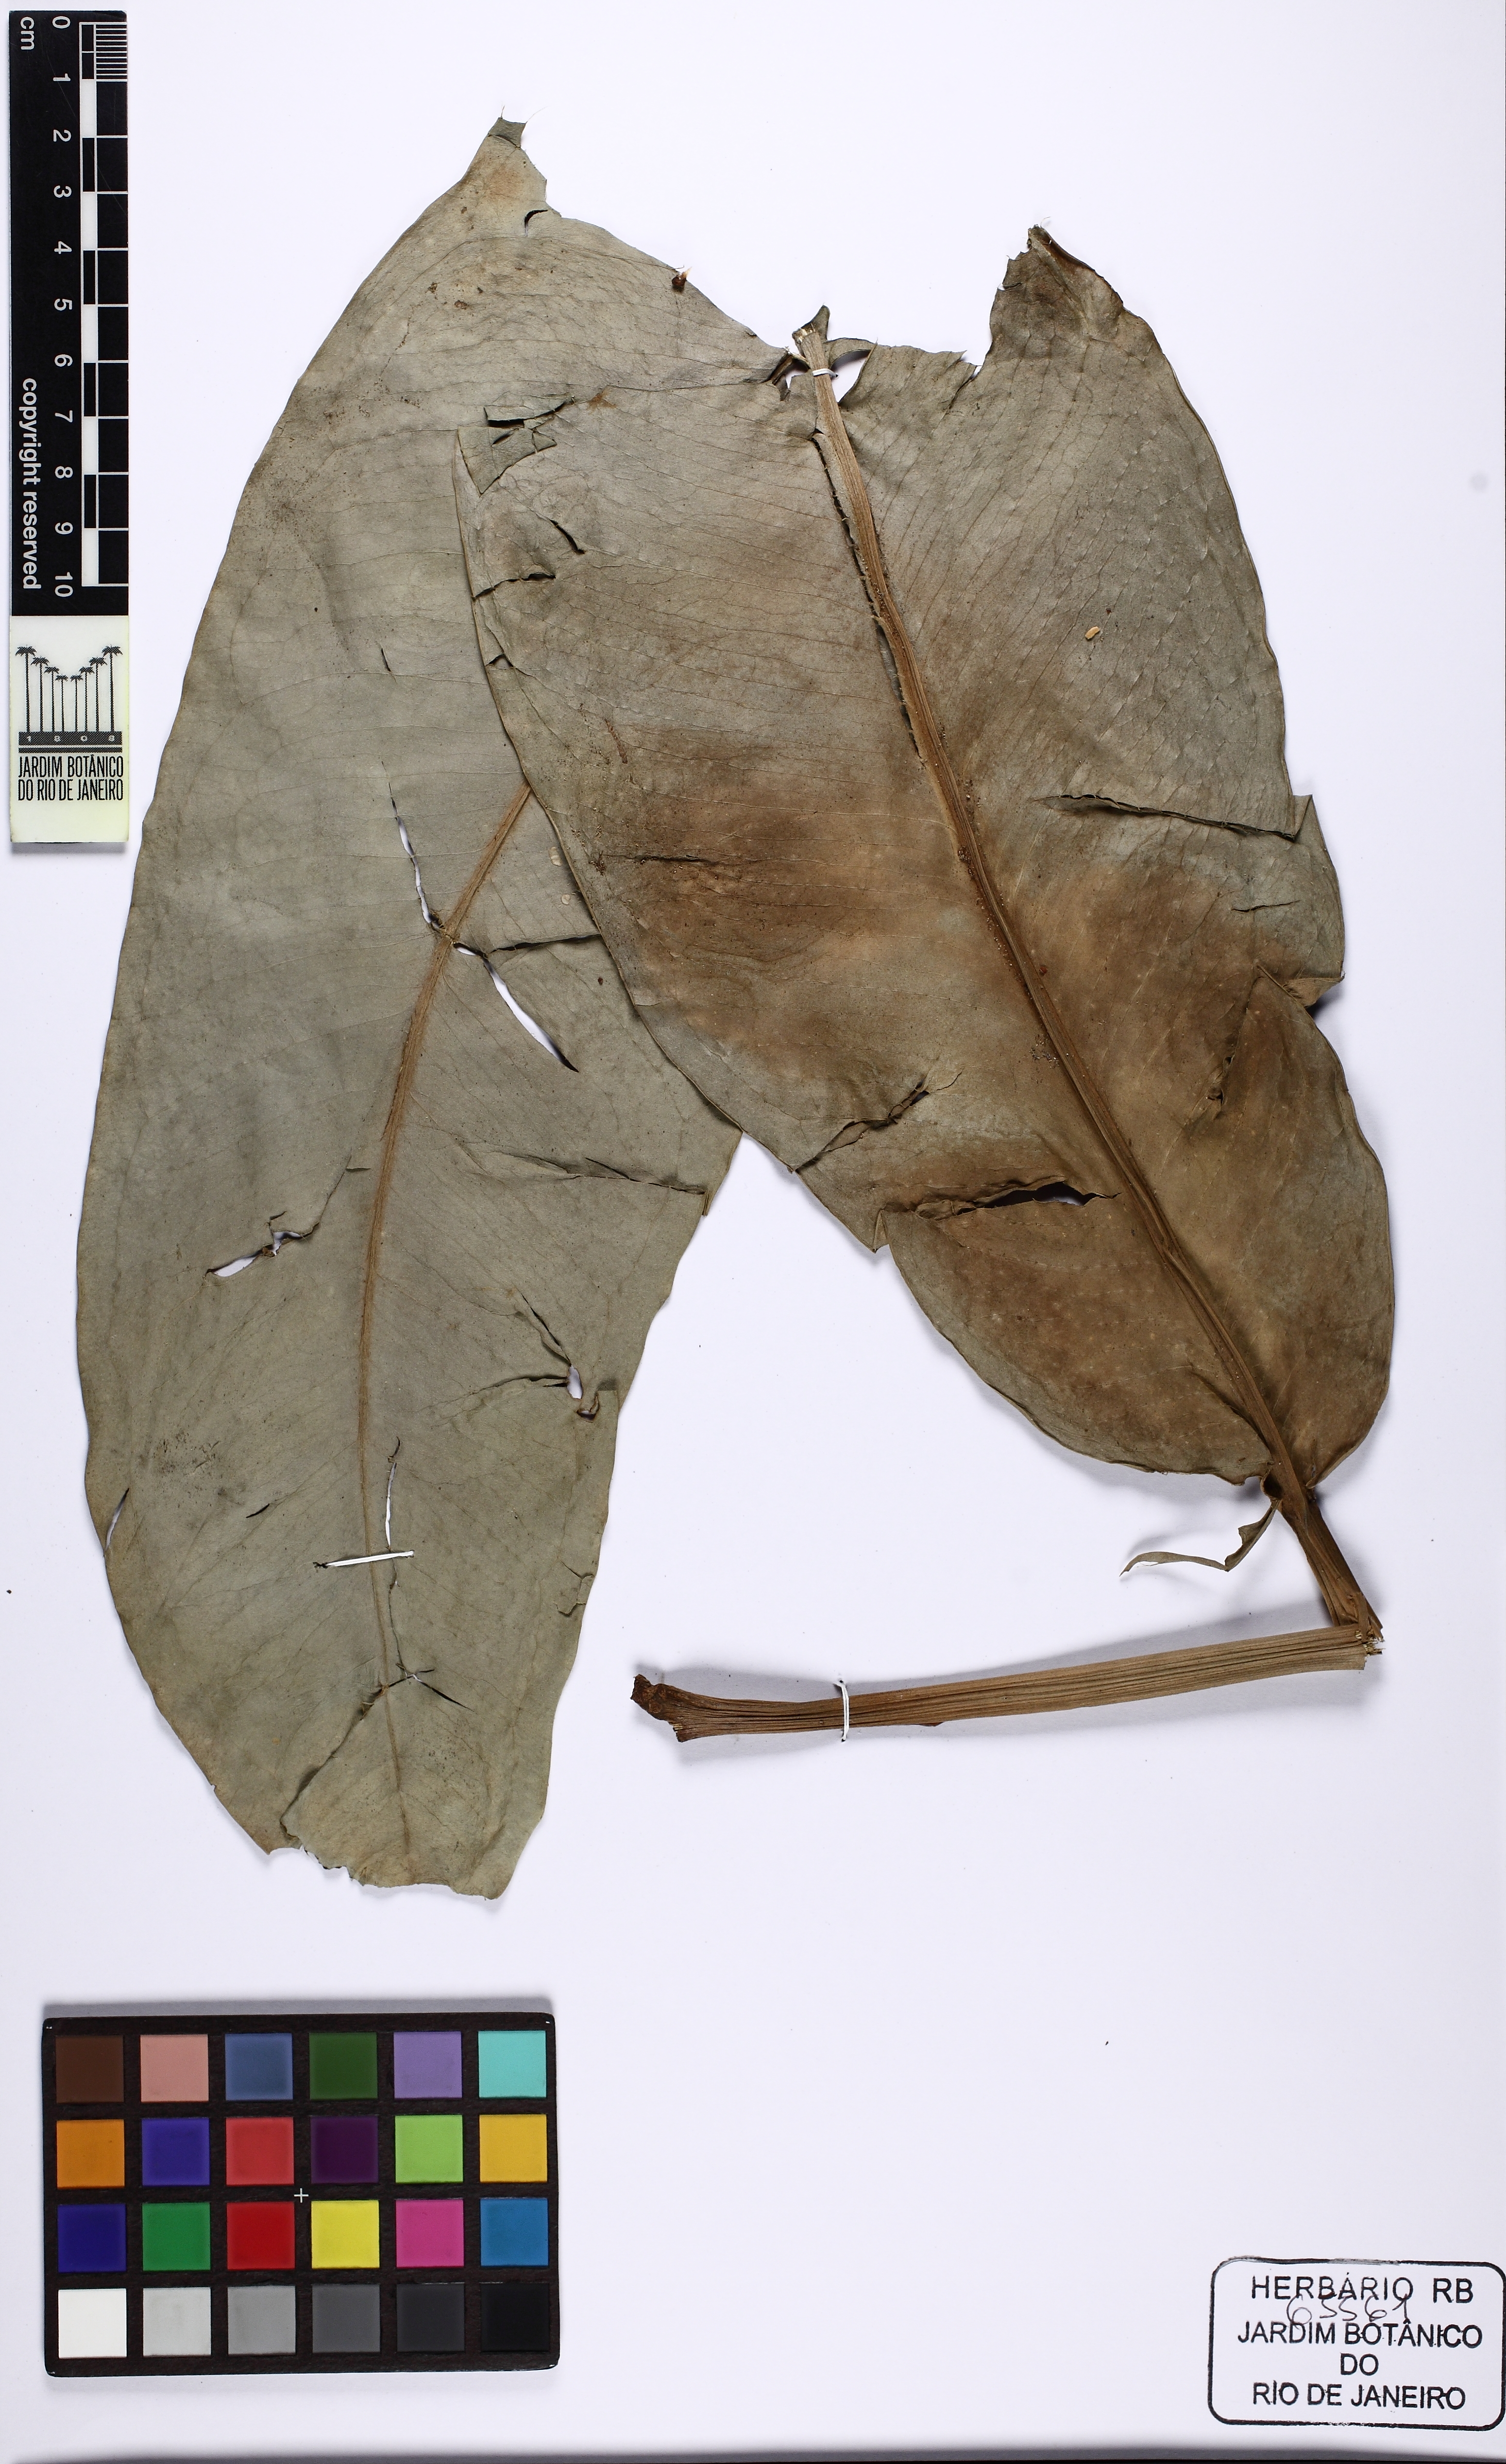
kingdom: Plantae
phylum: Tracheophyta
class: Liliopsida
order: Alismatales
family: Araceae
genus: Anthurium
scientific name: Anthurium raimundii
